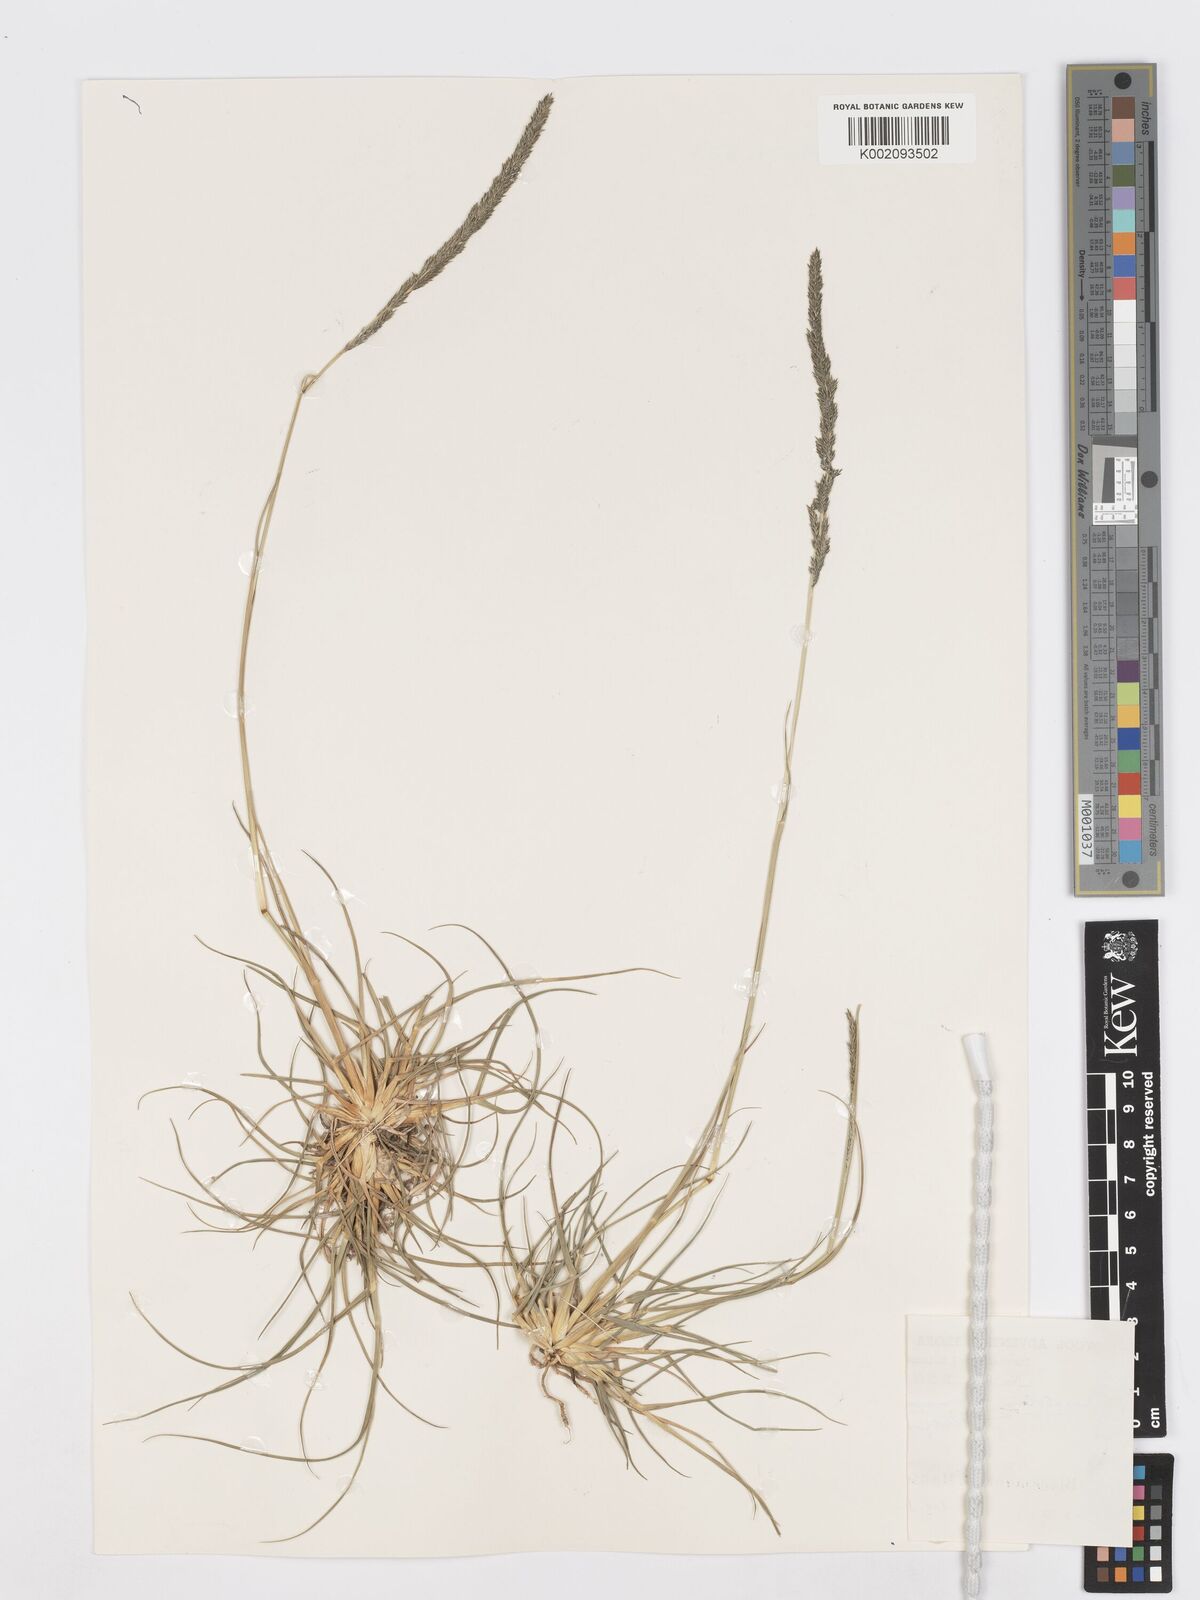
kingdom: Plantae
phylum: Tracheophyta
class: Liliopsida
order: Poales
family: Poaceae
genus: Sporobolus
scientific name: Sporobolus africanus
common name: African dropseed
